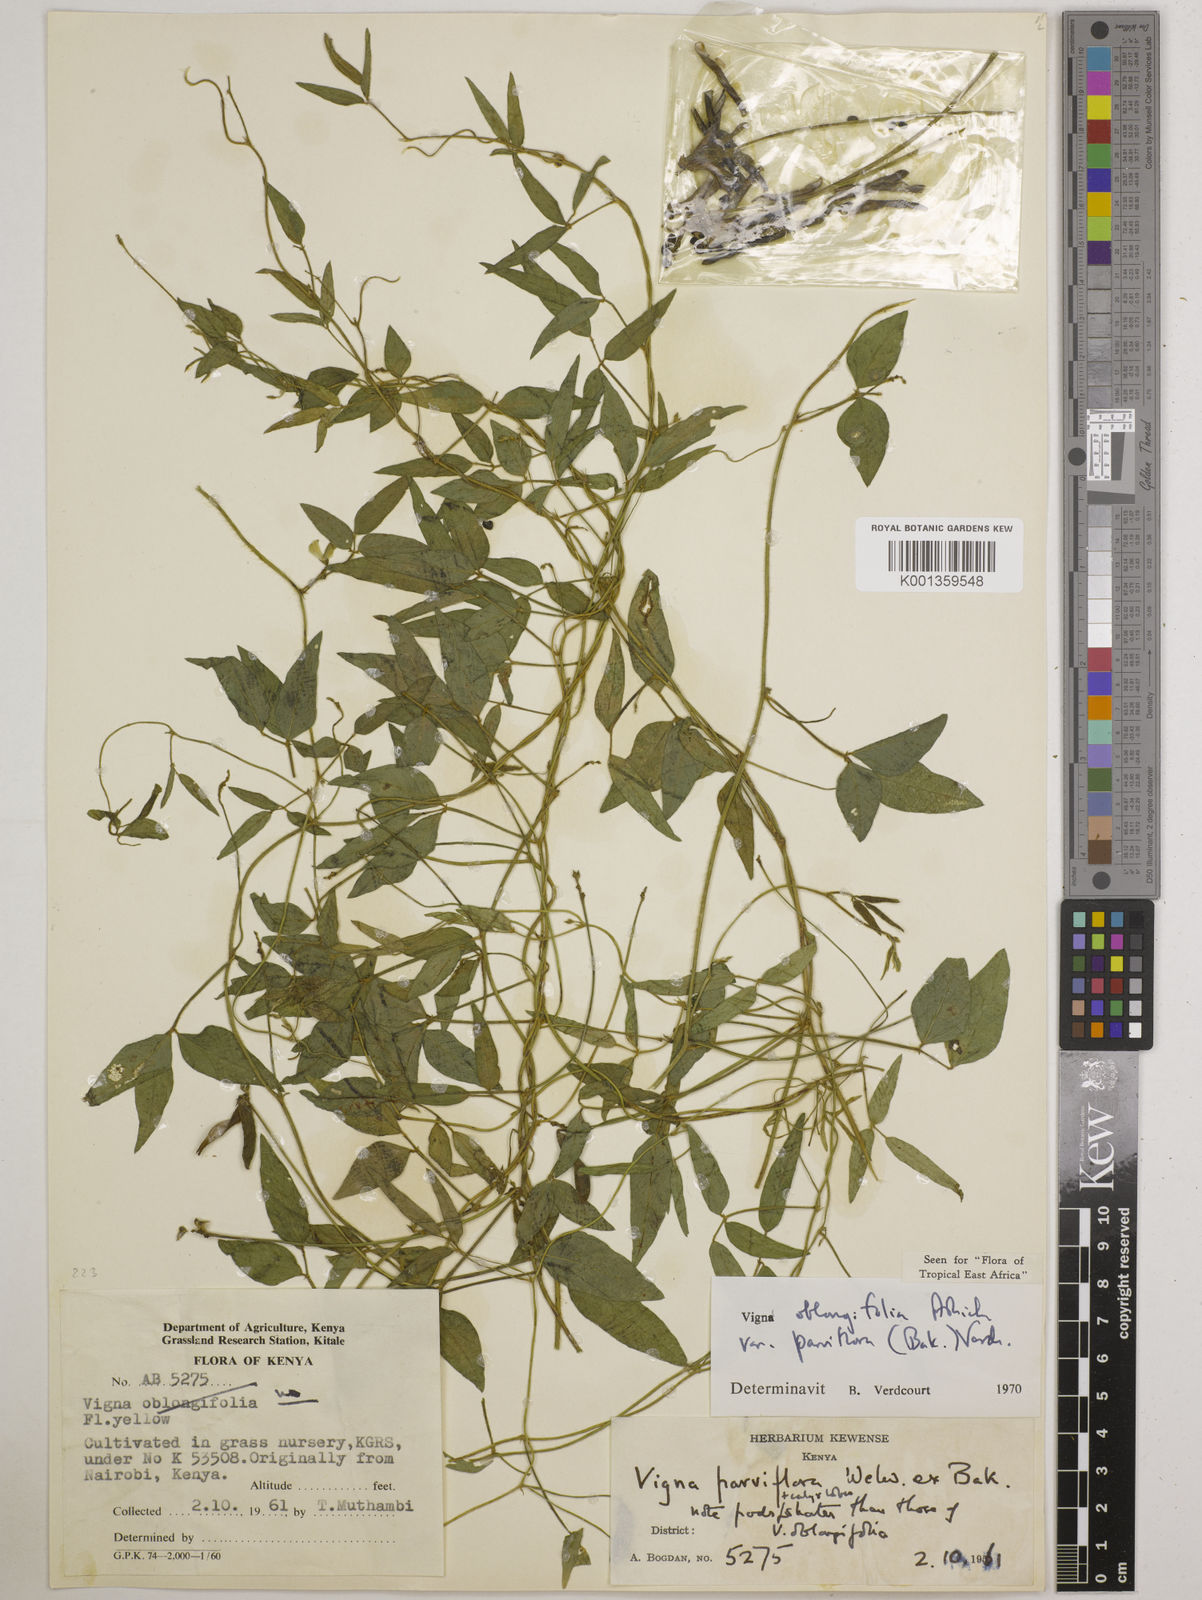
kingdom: Plantae
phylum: Tracheophyta
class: Magnoliopsida
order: Fabales
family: Fabaceae
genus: Vigna
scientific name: Vigna
